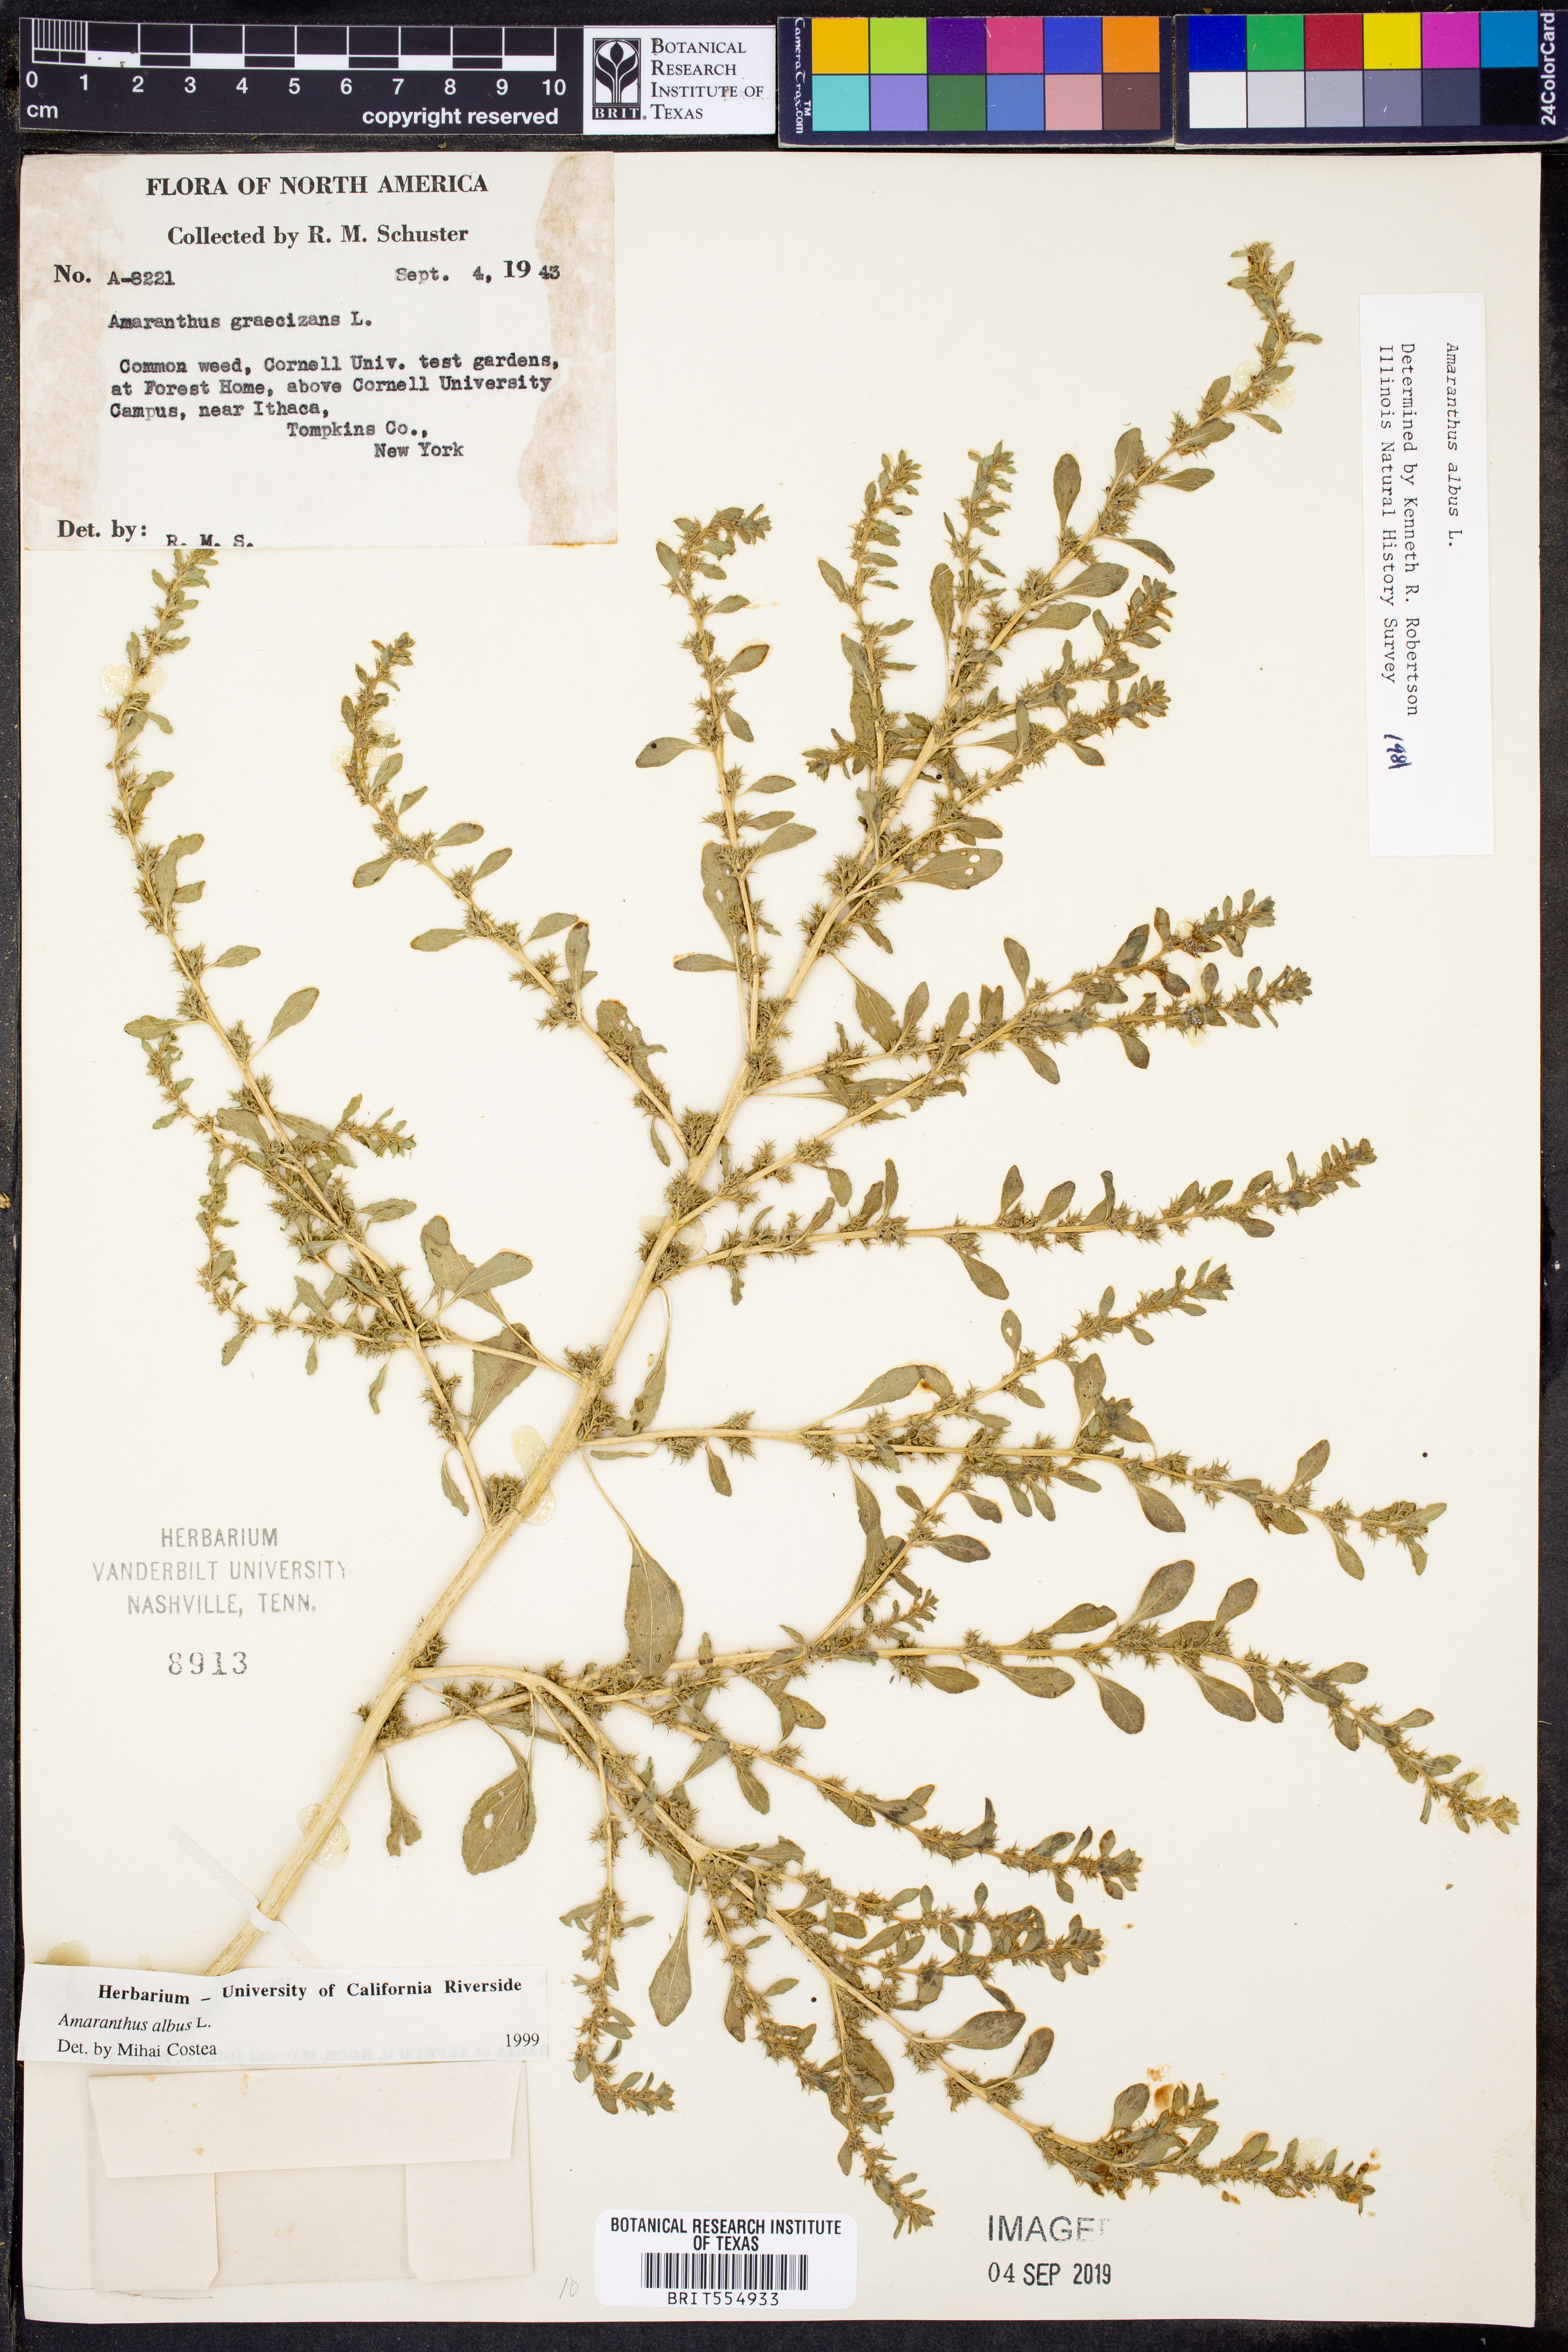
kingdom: Plantae
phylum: Tracheophyta
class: Magnoliopsida
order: Caryophyllales
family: Amaranthaceae
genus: Amaranthus
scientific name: Amaranthus albus
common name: White pigweed
